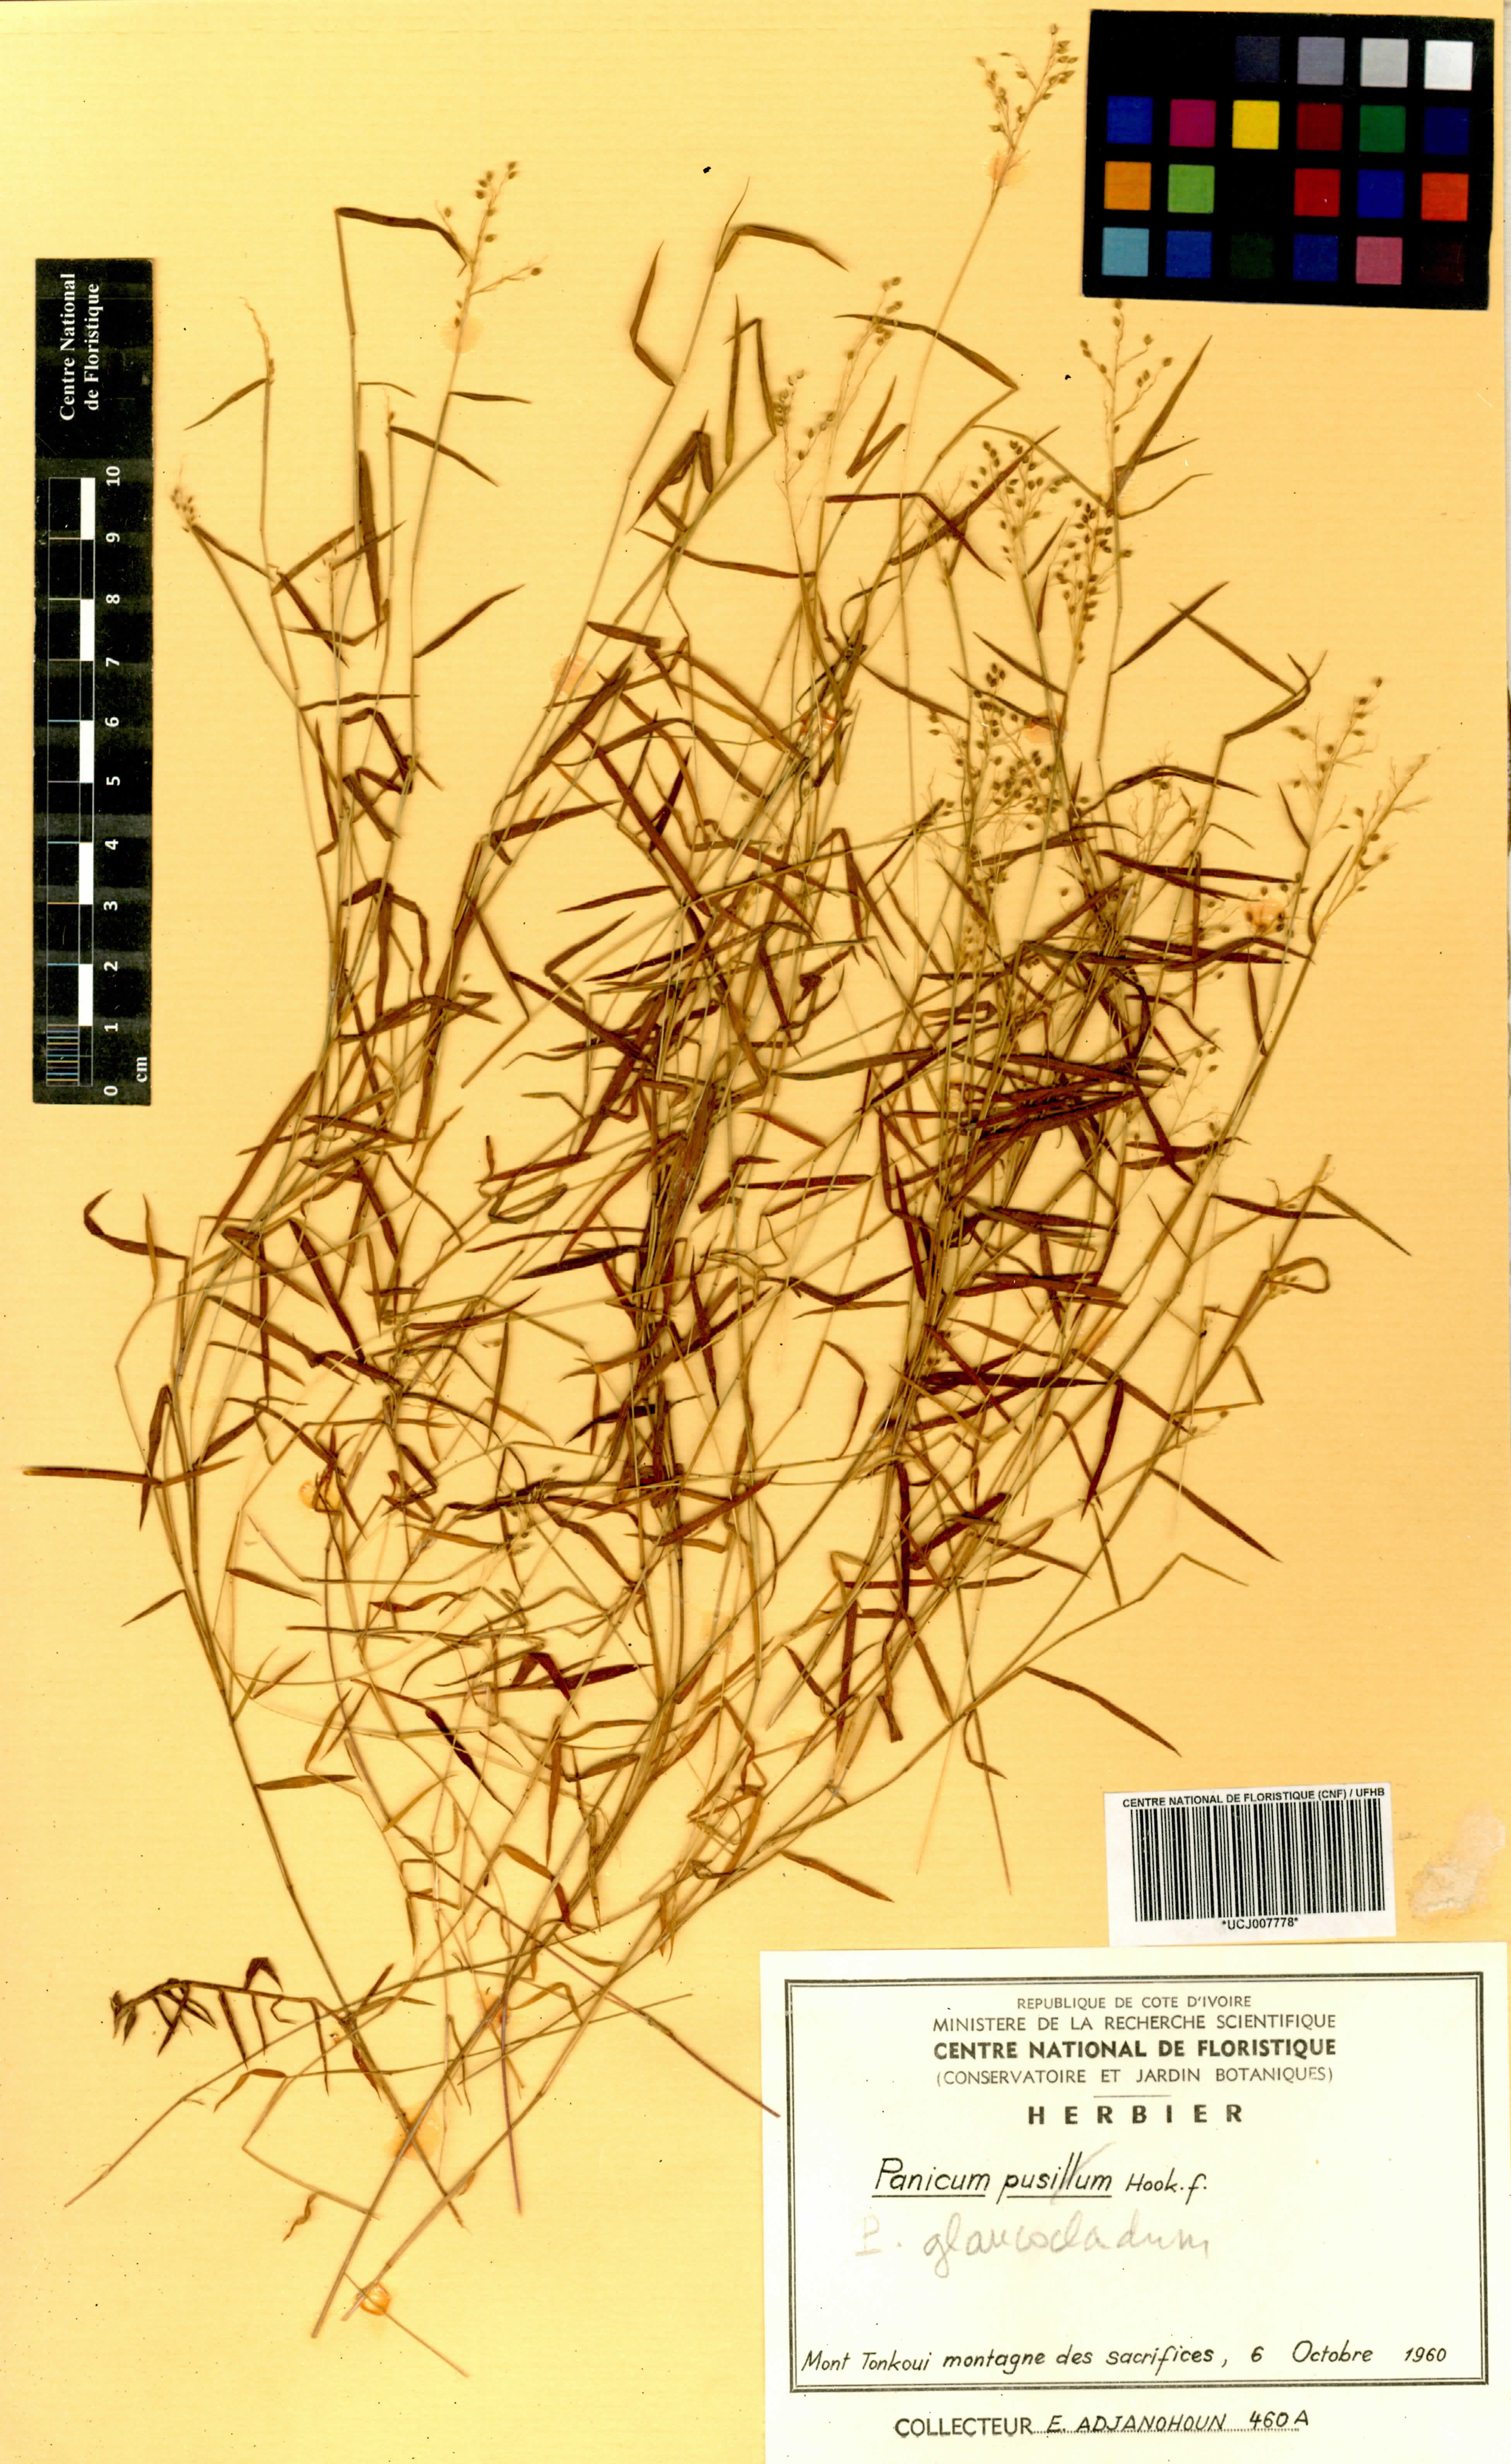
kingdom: Plantae
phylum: Tracheophyta
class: Liliopsida
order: Poales
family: Poaceae
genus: Trichanthecium
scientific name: Trichanthecium glaucocladum
